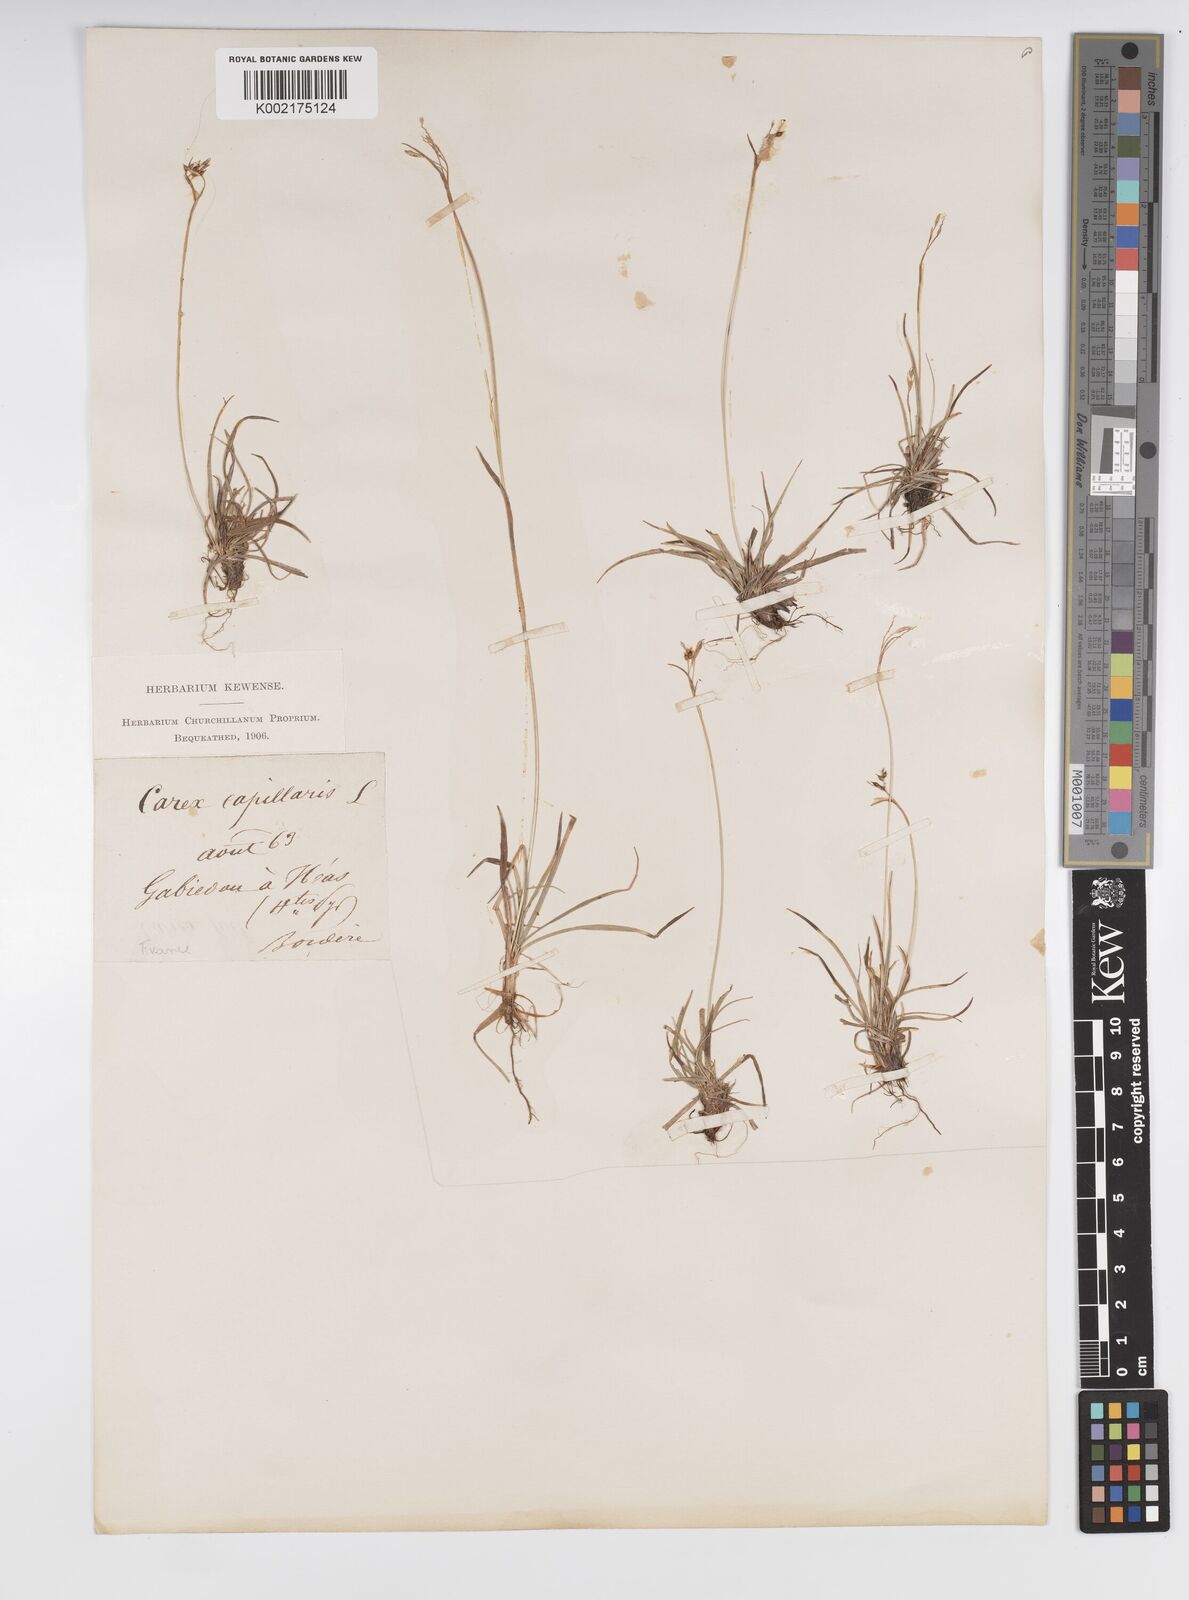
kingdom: Plantae
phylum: Tracheophyta
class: Liliopsida
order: Poales
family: Cyperaceae
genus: Carex
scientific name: Carex capillaris
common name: Hair sedge
